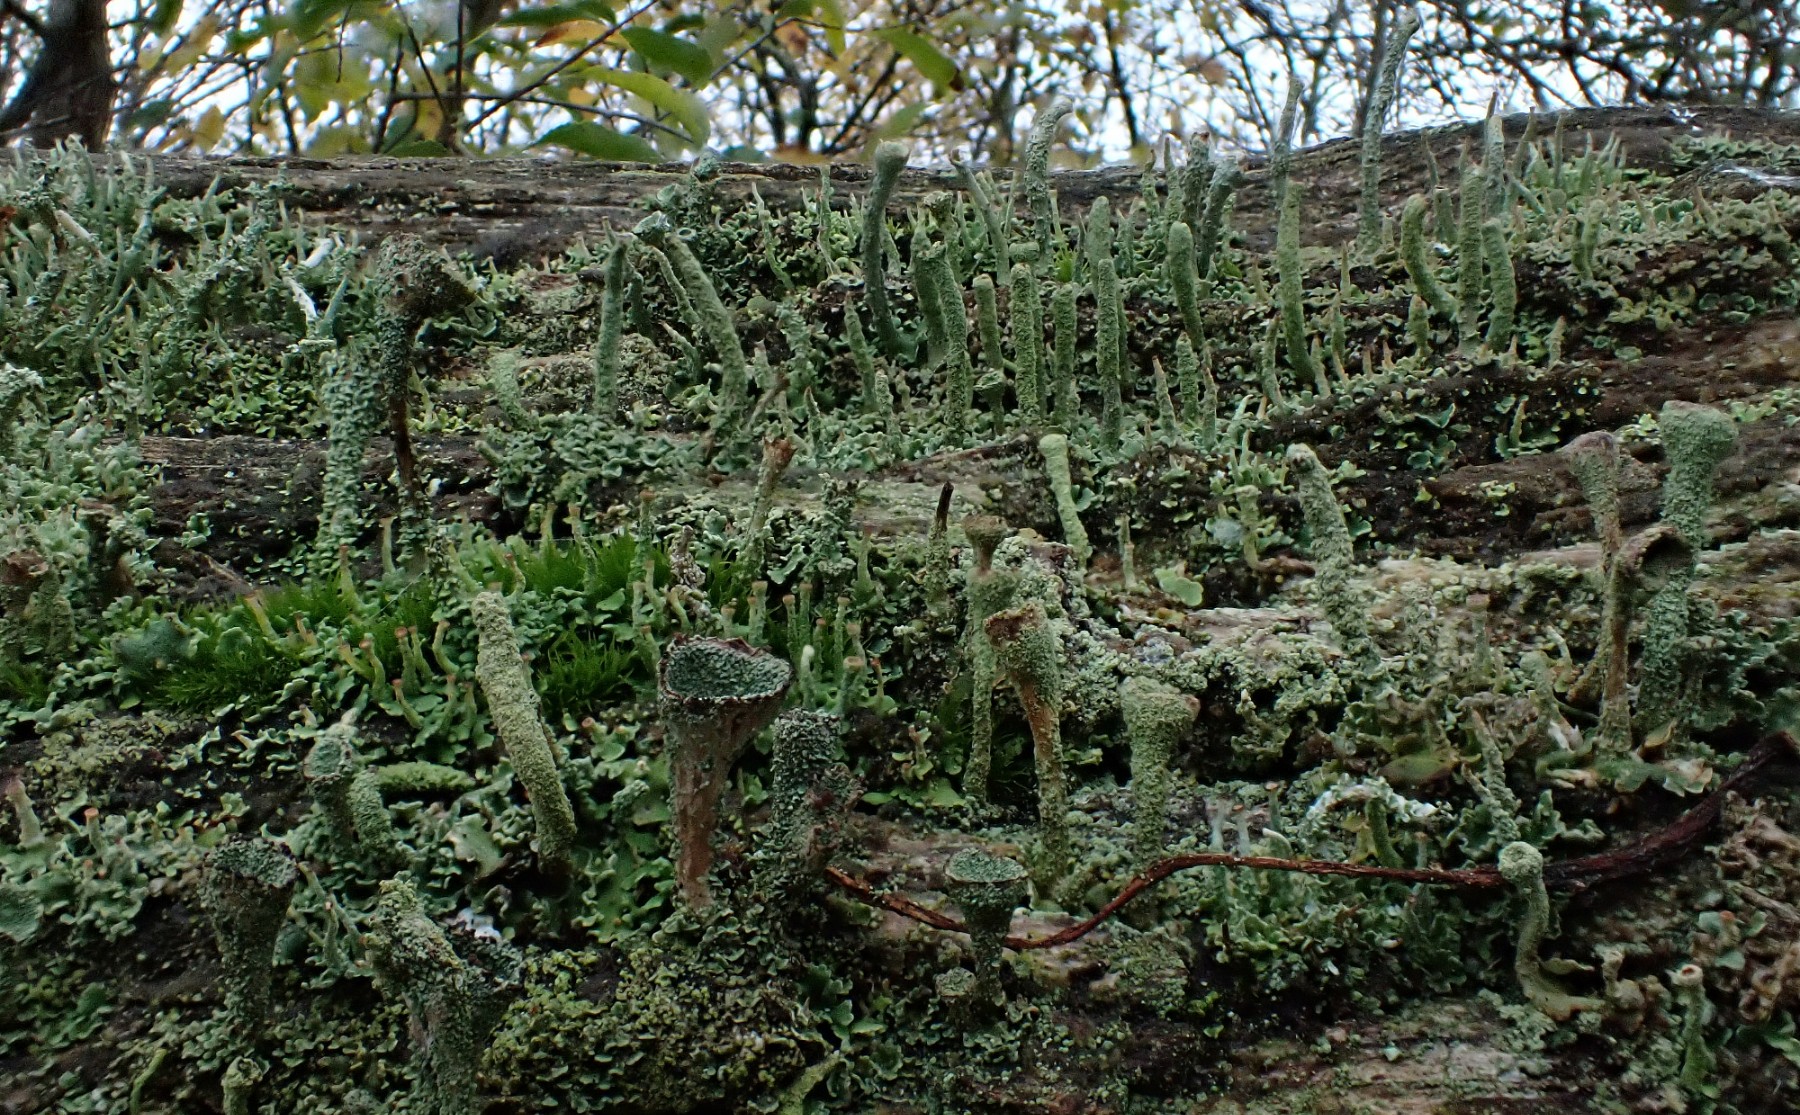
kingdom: Fungi
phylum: Ascomycota
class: Lecanoromycetes
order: Lecanorales
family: Cladoniaceae
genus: Cladonia
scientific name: Cladonia
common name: brungrøn bægerlav
